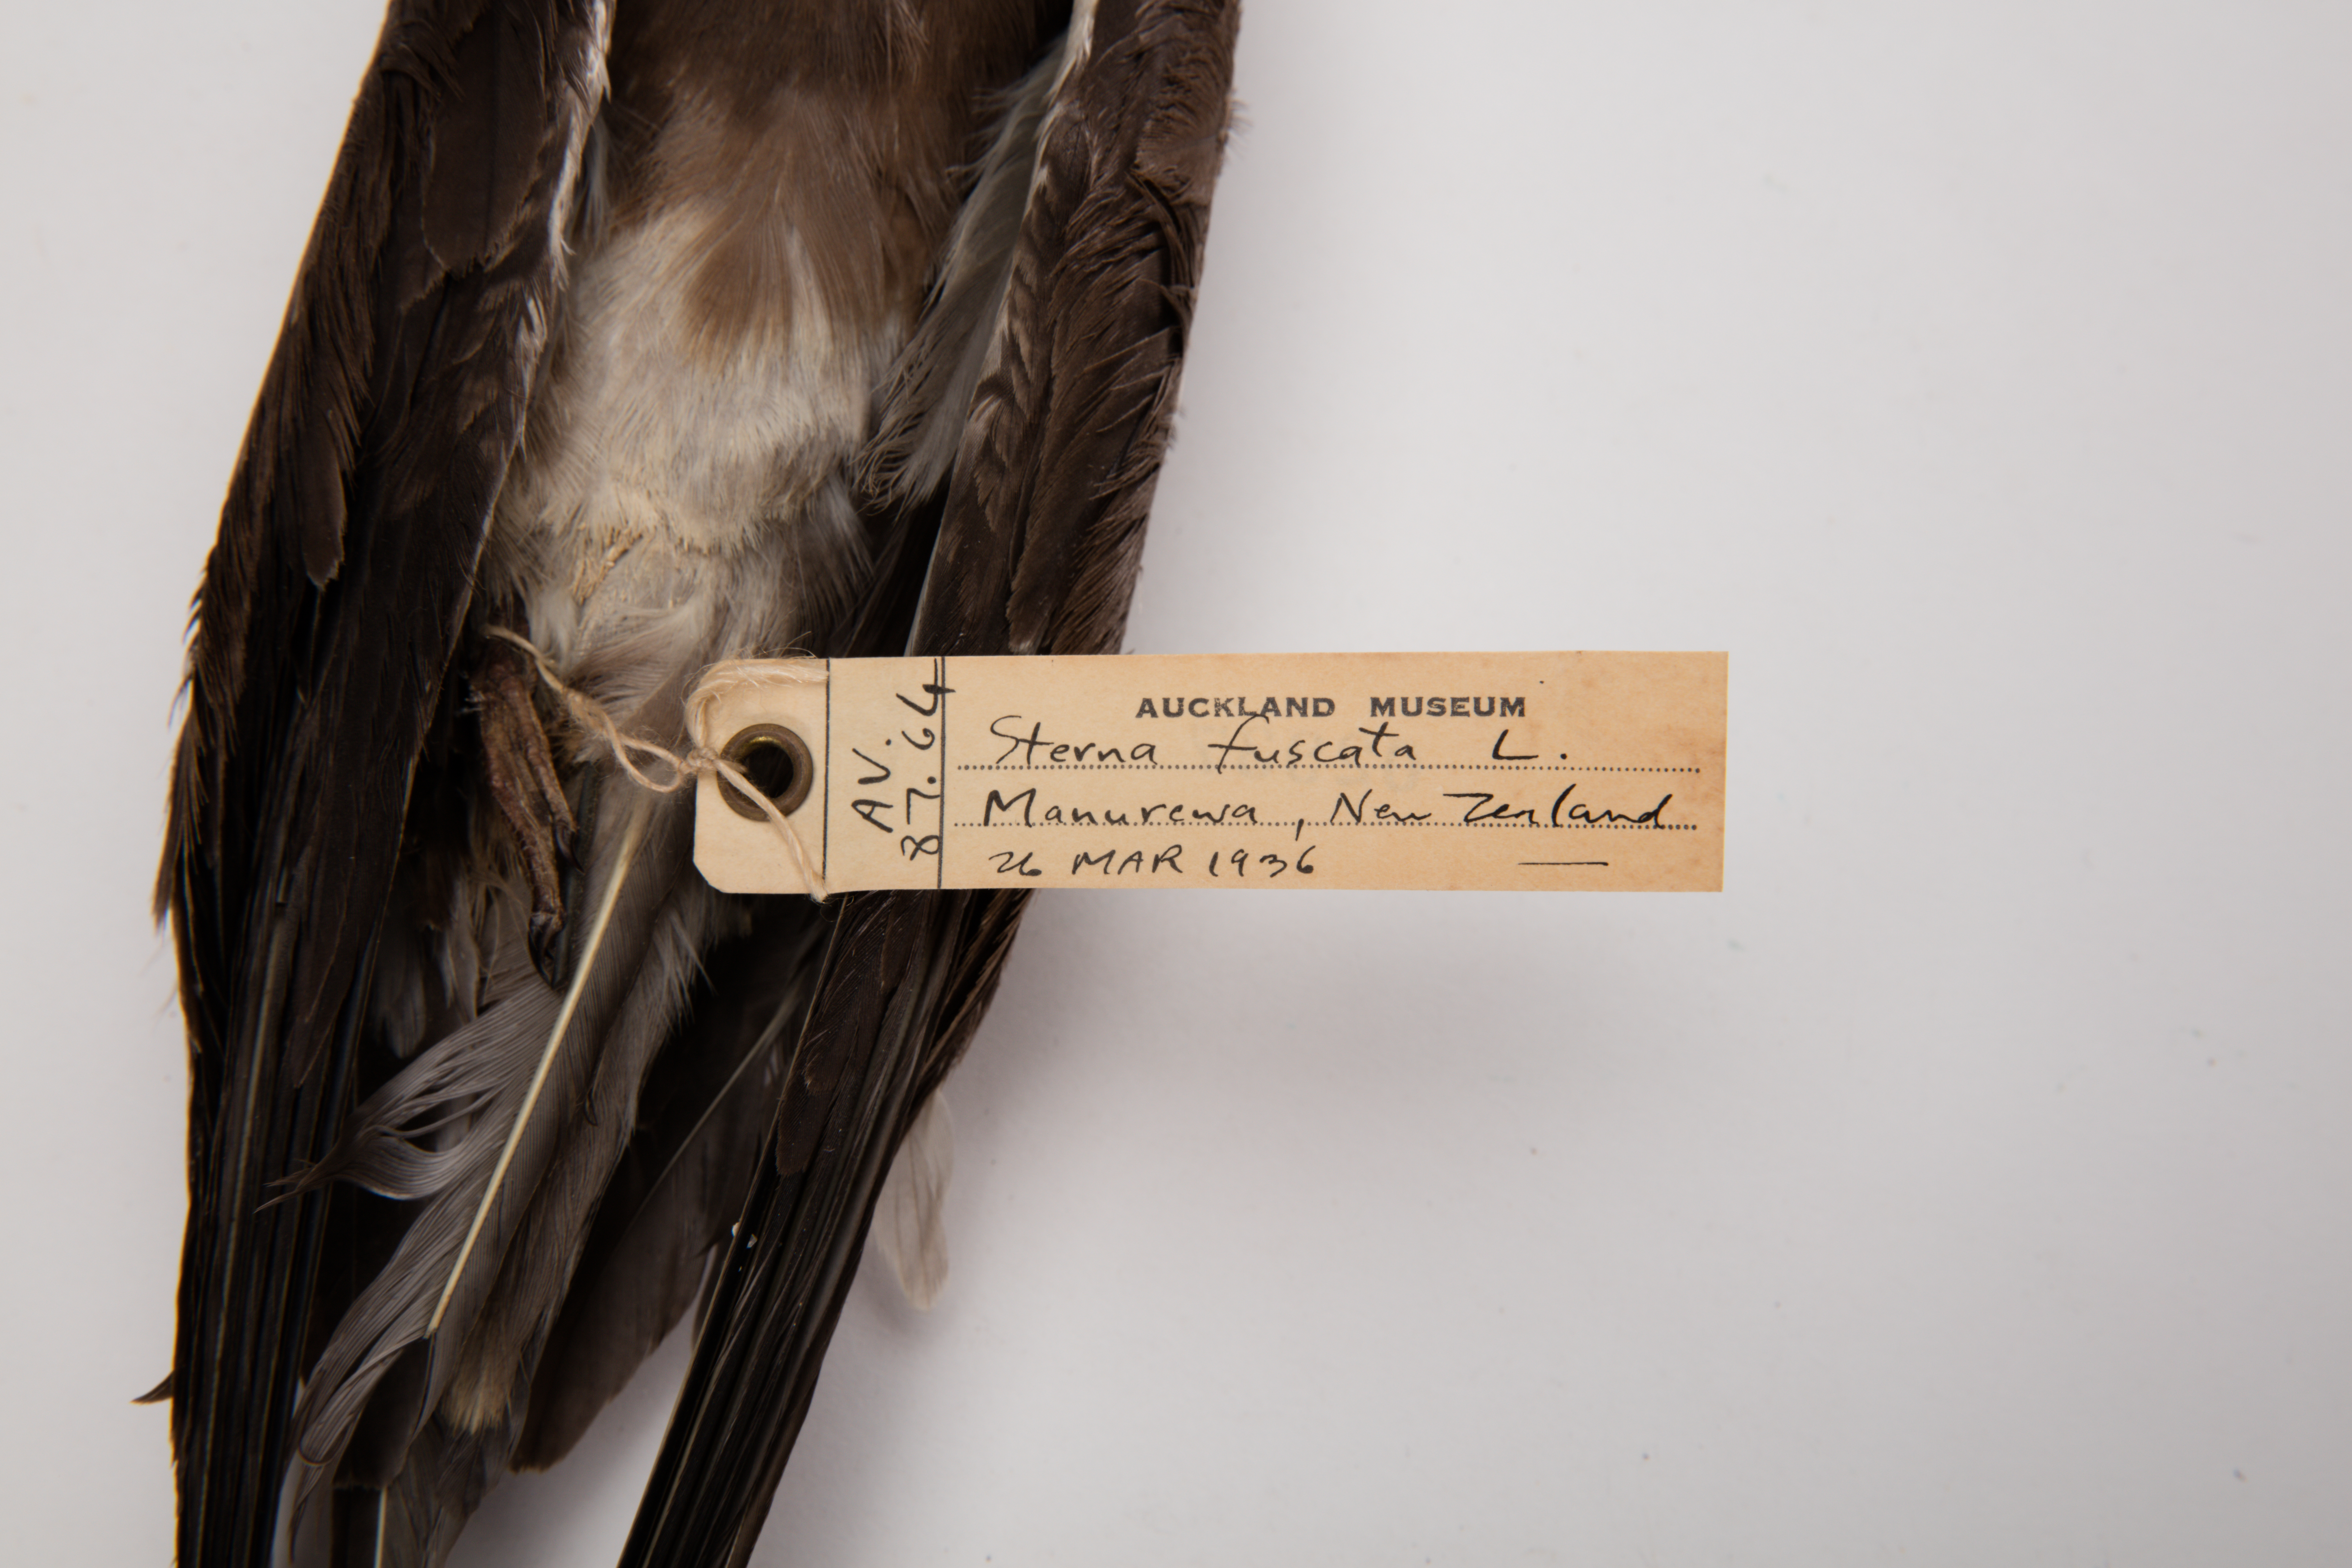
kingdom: Animalia
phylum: Chordata
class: Aves
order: Charadriiformes
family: Laridae
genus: Onychoprion
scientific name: Onychoprion fuscatus
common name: Sooty tern
